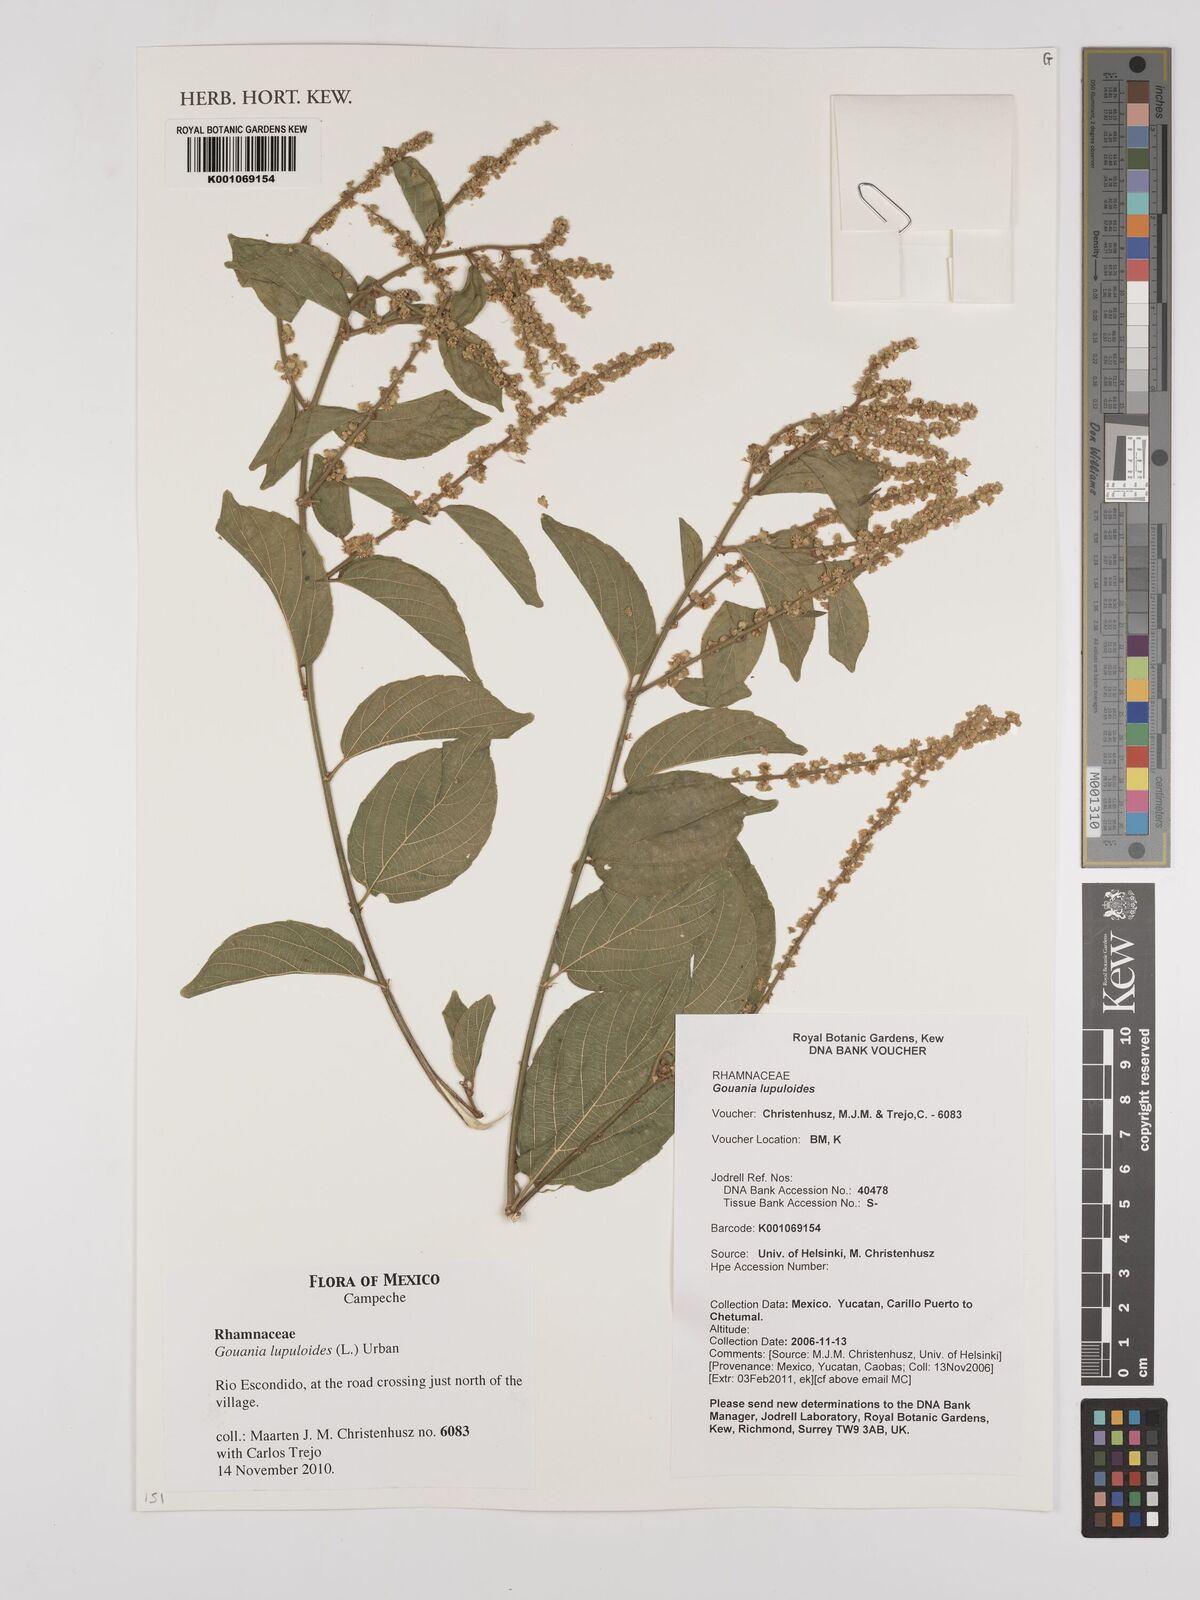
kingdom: Plantae
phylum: Tracheophyta
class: Magnoliopsida
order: Rosales
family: Rhamnaceae
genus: Gouania
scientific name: Gouania lupuloides
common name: Chewstick
